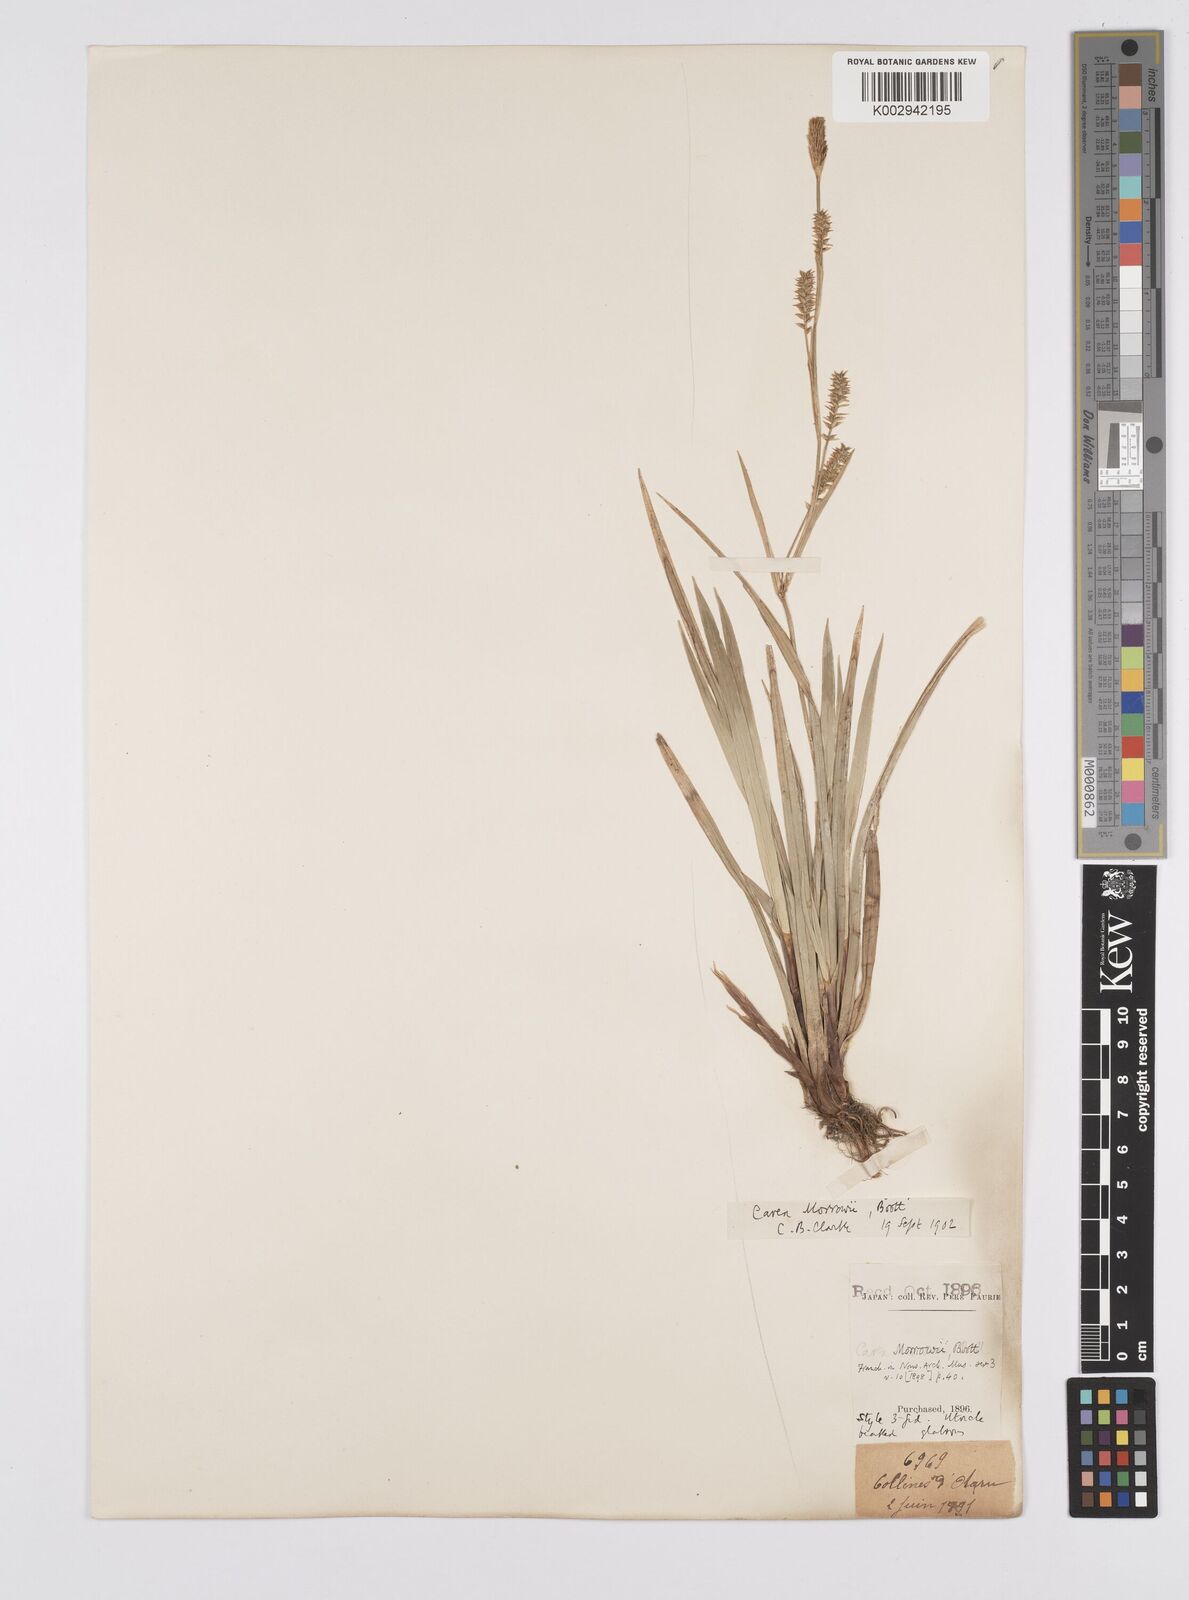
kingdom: Plantae
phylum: Tracheophyta
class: Liliopsida
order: Poales
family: Cyperaceae
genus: Carex
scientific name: Carex morrowii
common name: Japanese sedge
